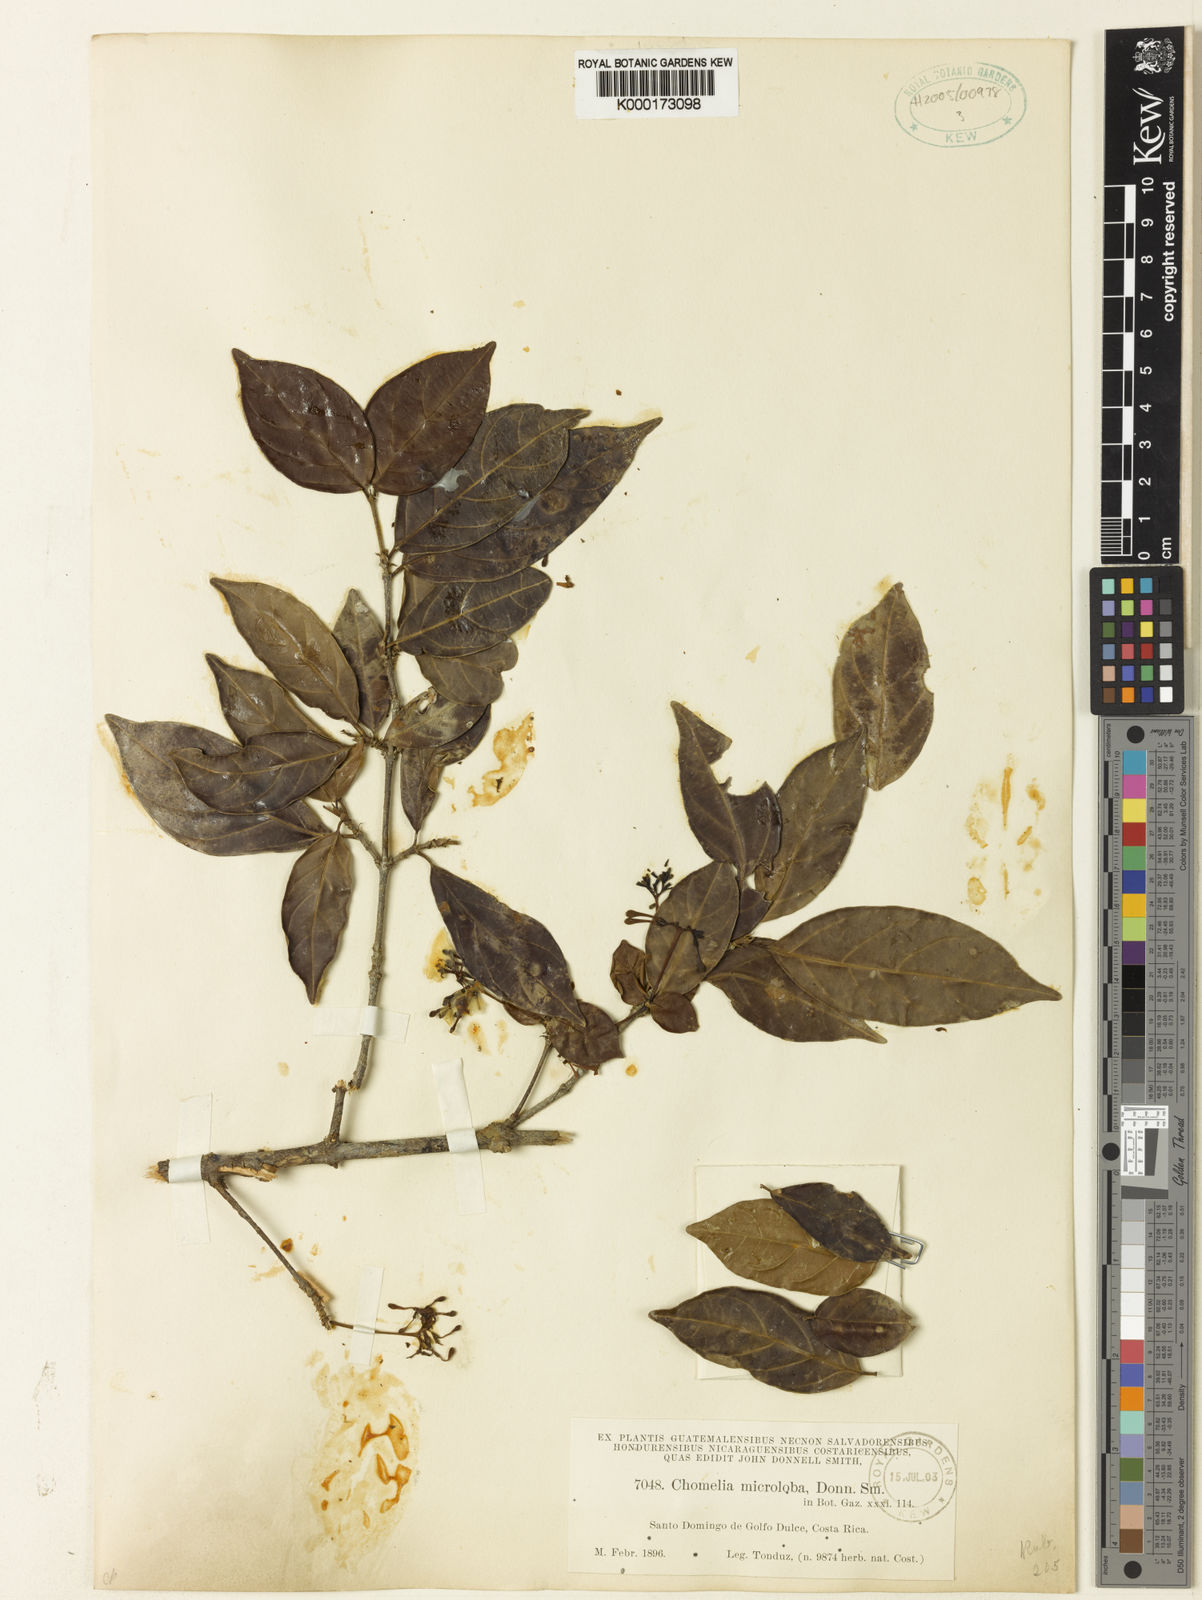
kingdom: Plantae
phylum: Tracheophyta
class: Magnoliopsida
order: Gentianales
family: Rubiaceae
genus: Chomelia
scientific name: Chomelia microloba
